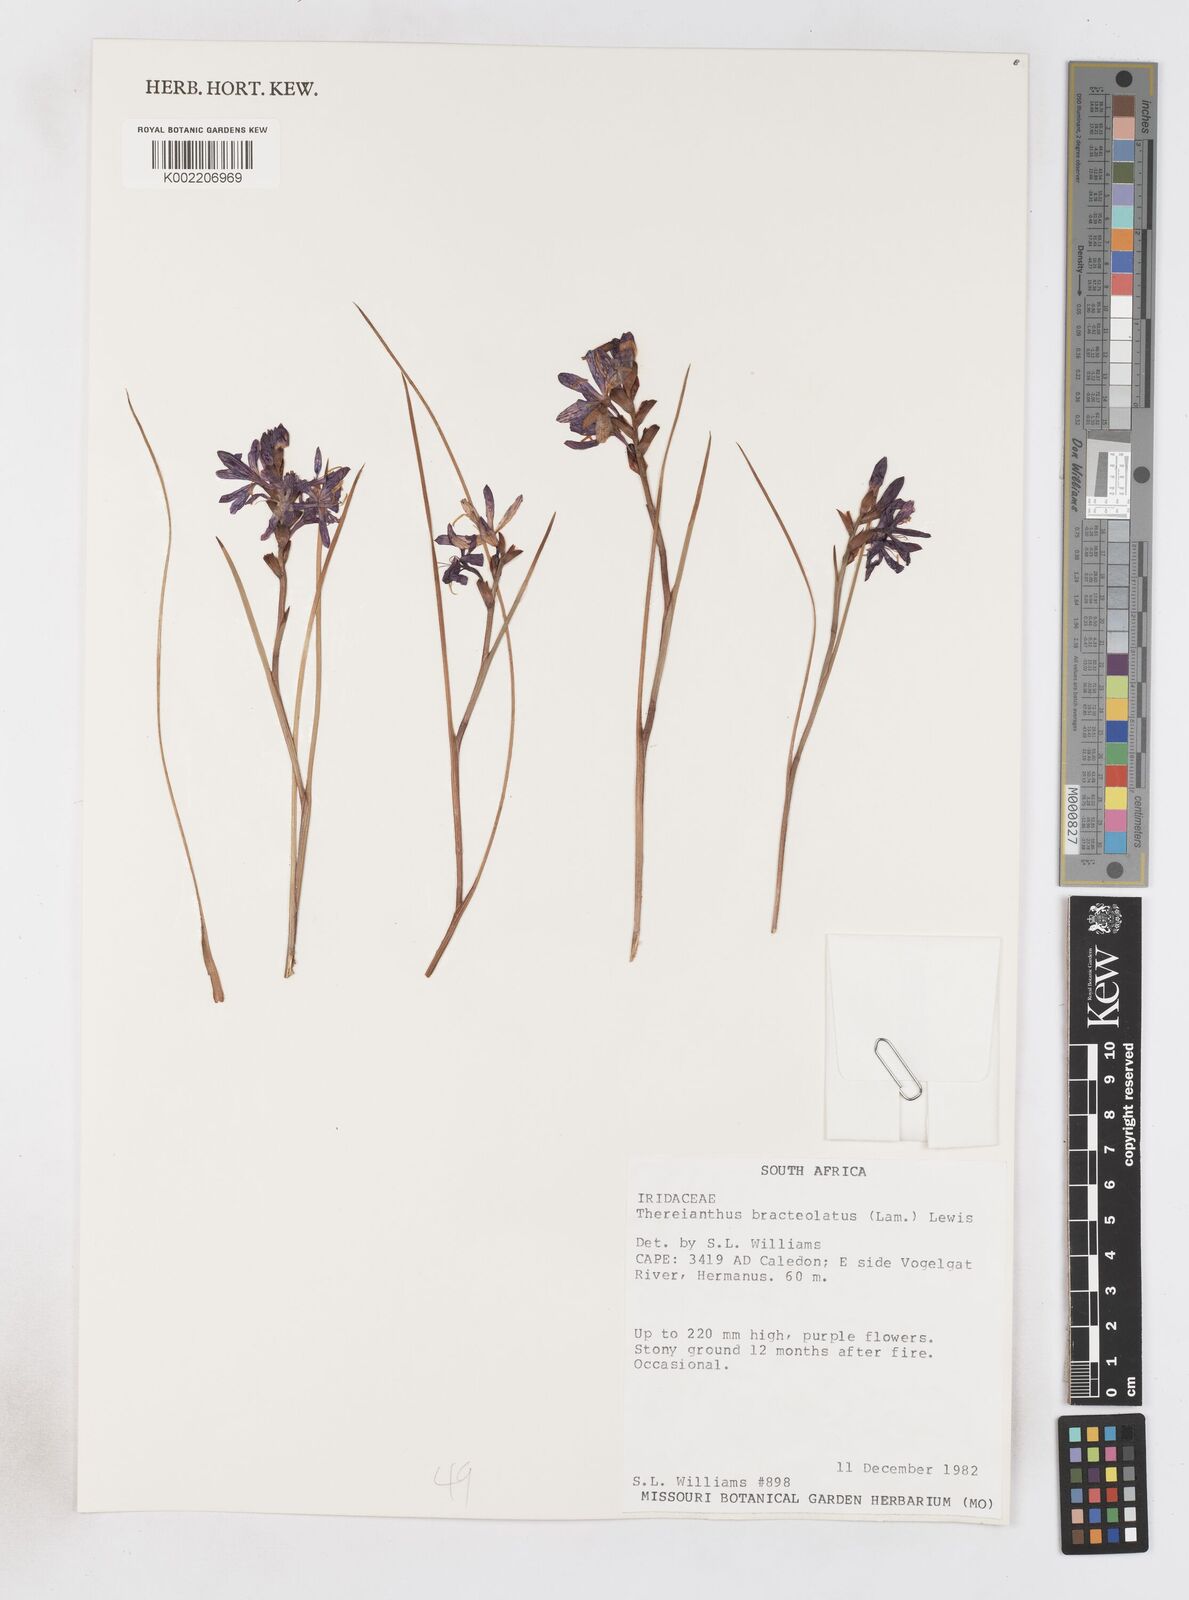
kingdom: Plantae
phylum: Tracheophyta
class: Liliopsida
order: Asparagales
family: Iridaceae
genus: Thereianthus
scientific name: Thereianthus bracteolatus
